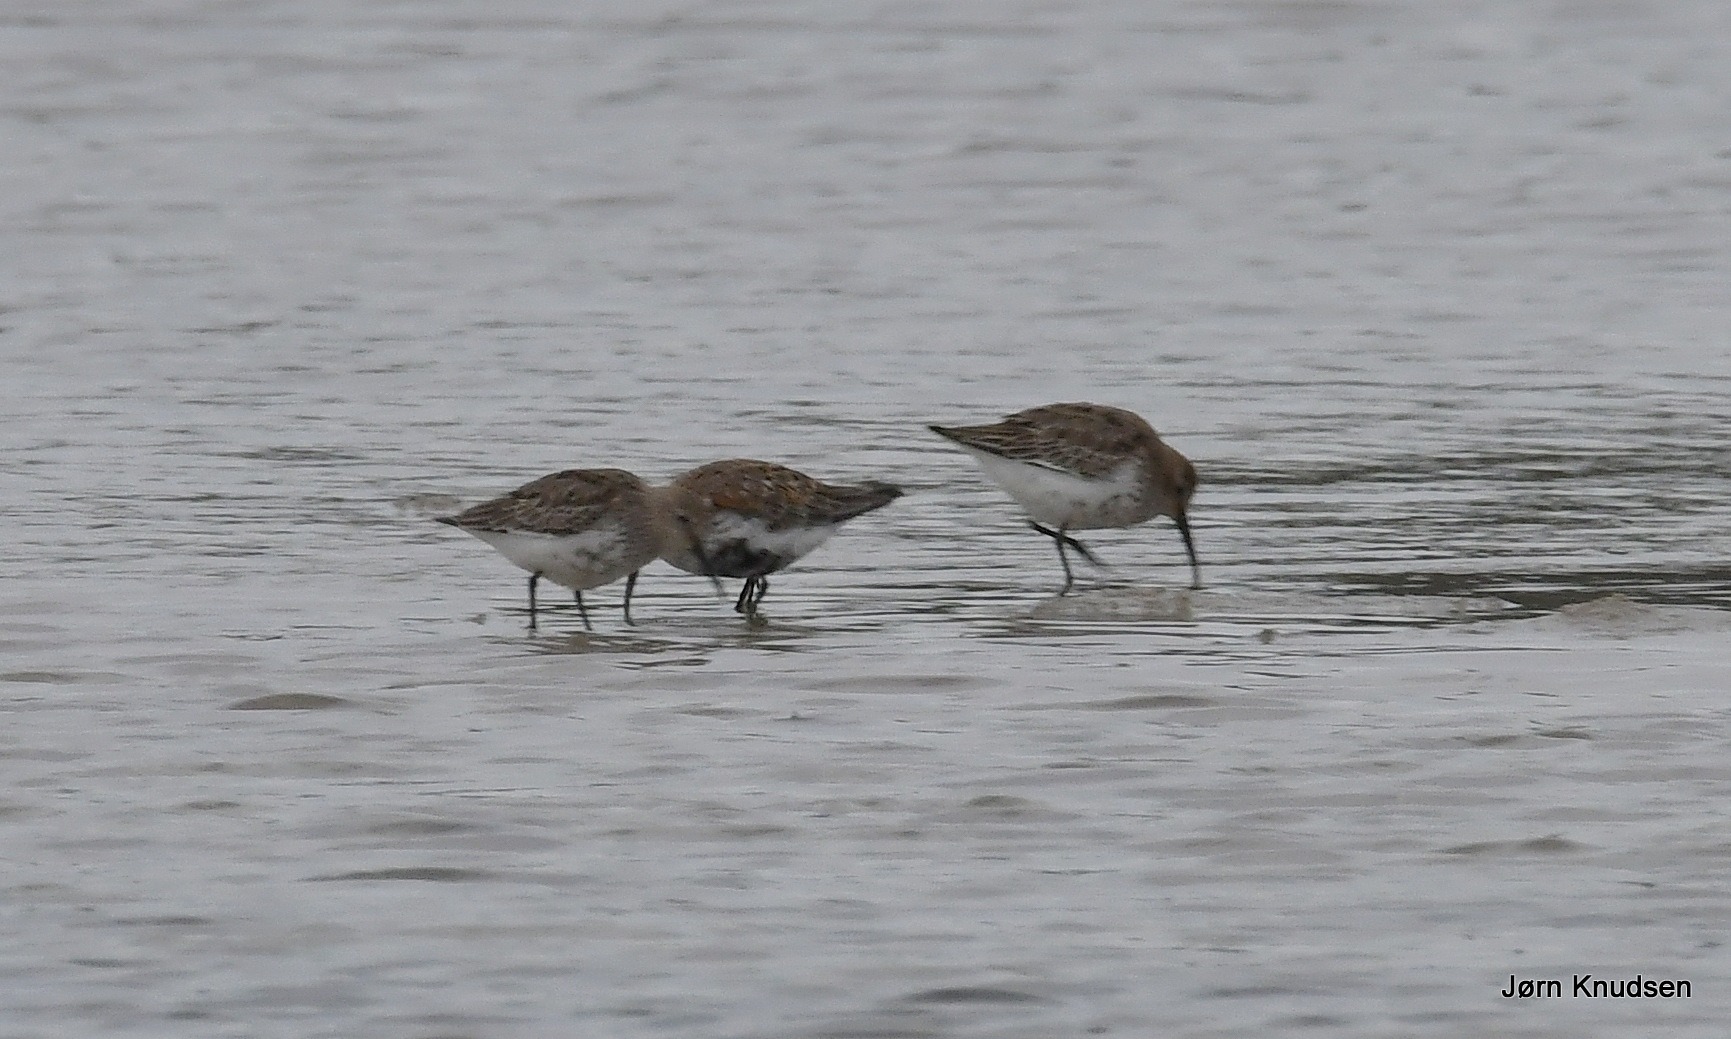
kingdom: Animalia
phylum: Chordata
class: Aves
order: Charadriiformes
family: Scolopacidae
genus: Calidris
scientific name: Calidris alpina
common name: Almindelig ryle
